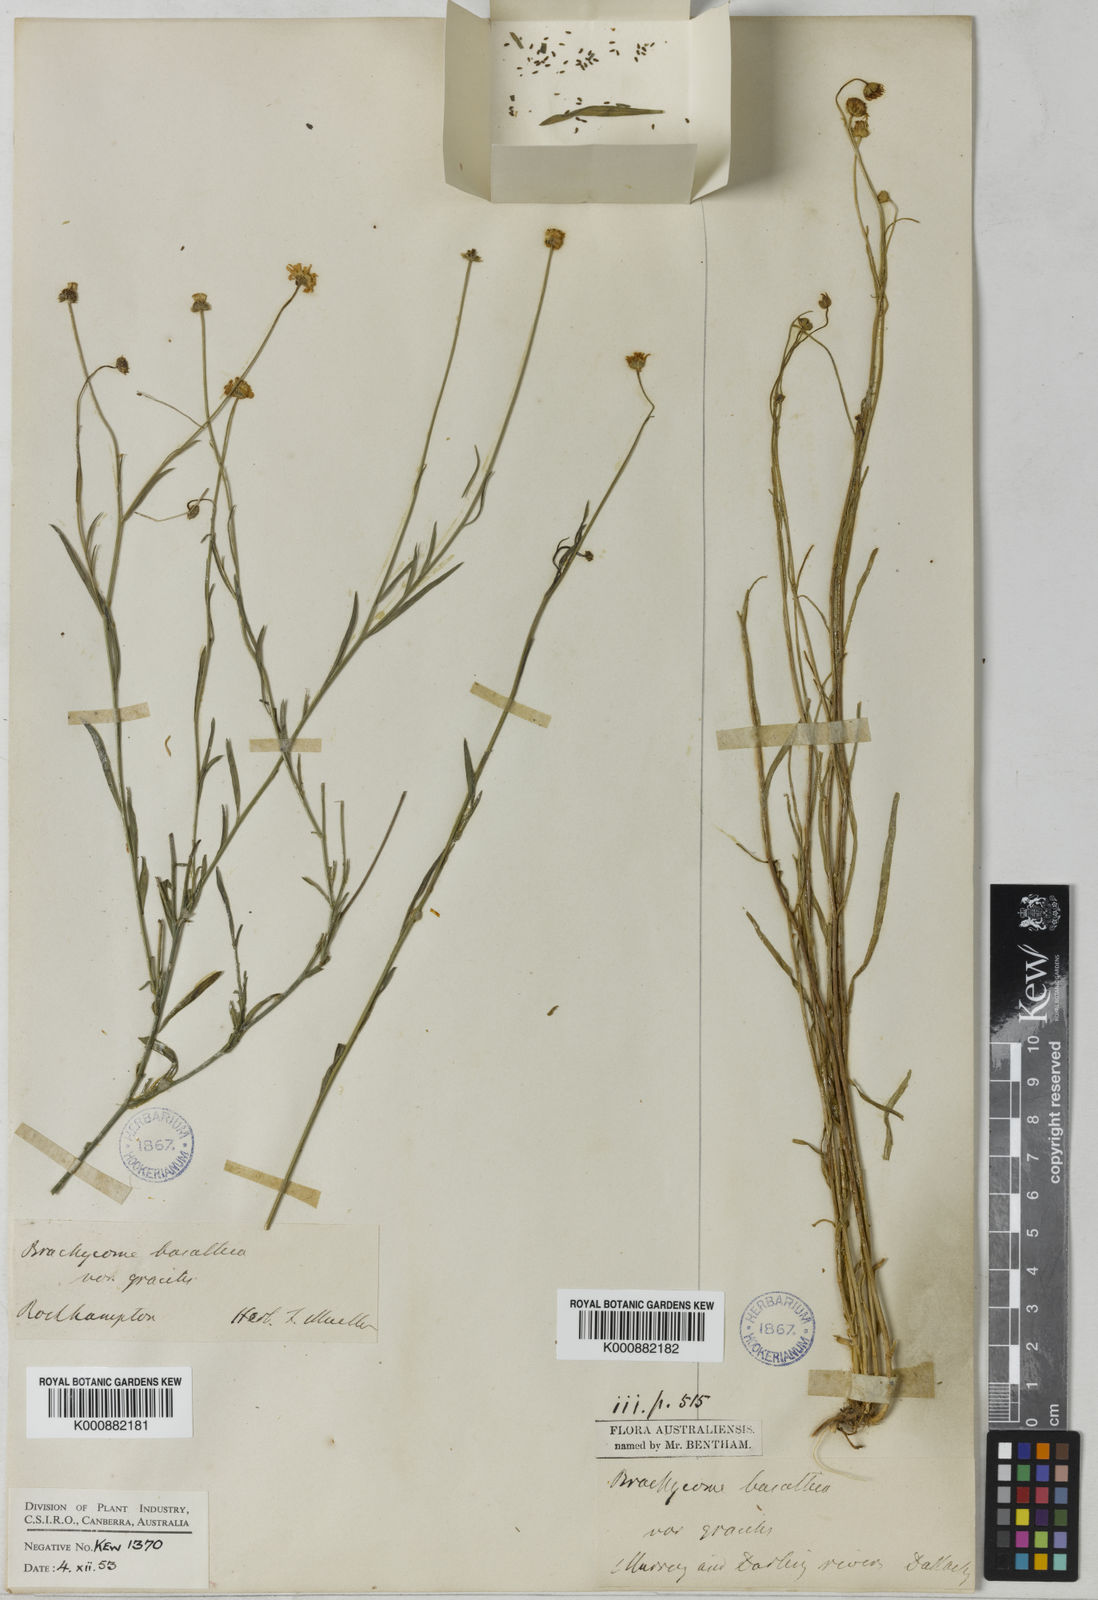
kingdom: Plantae
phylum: Tracheophyta
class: Magnoliopsida
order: Asterales
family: Asteraceae
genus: Brachyscome
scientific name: Brachyscome basaltica
